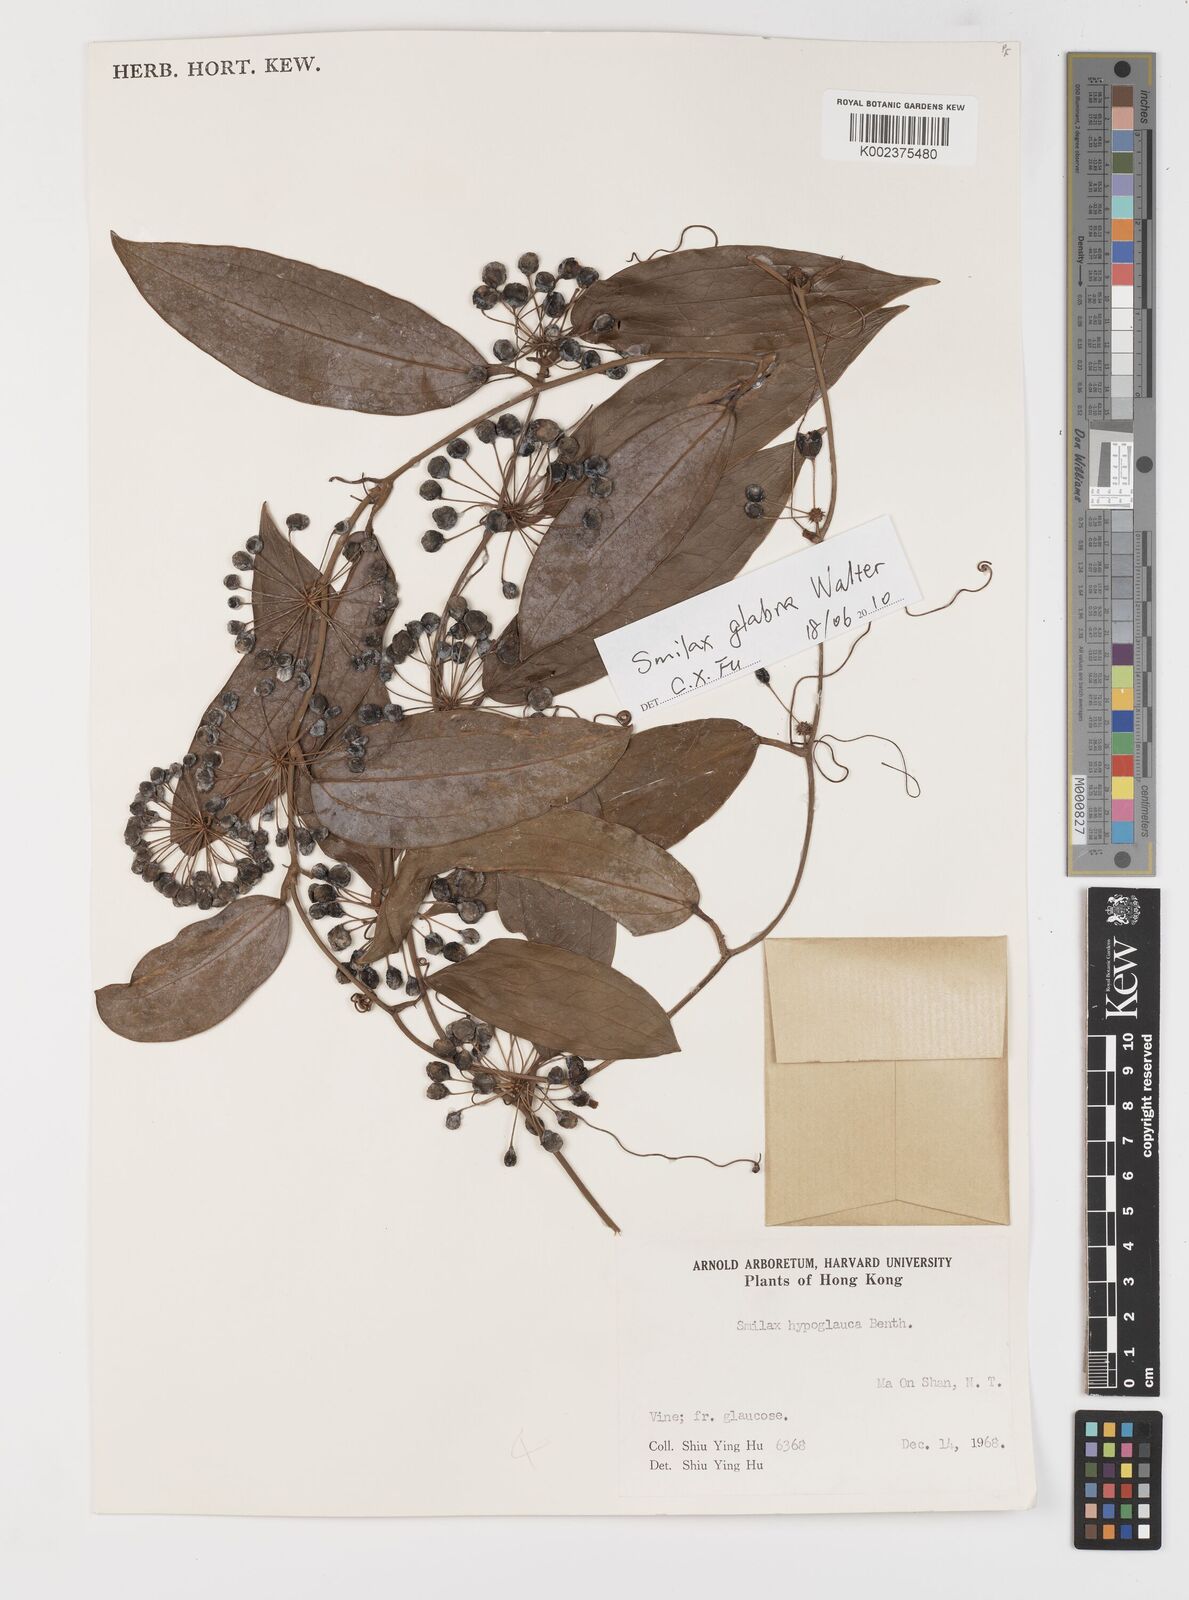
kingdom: Plantae
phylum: Tracheophyta
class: Liliopsida
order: Liliales
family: Smilacaceae
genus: Smilax
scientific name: Smilax glabra
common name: Chinese smilax
